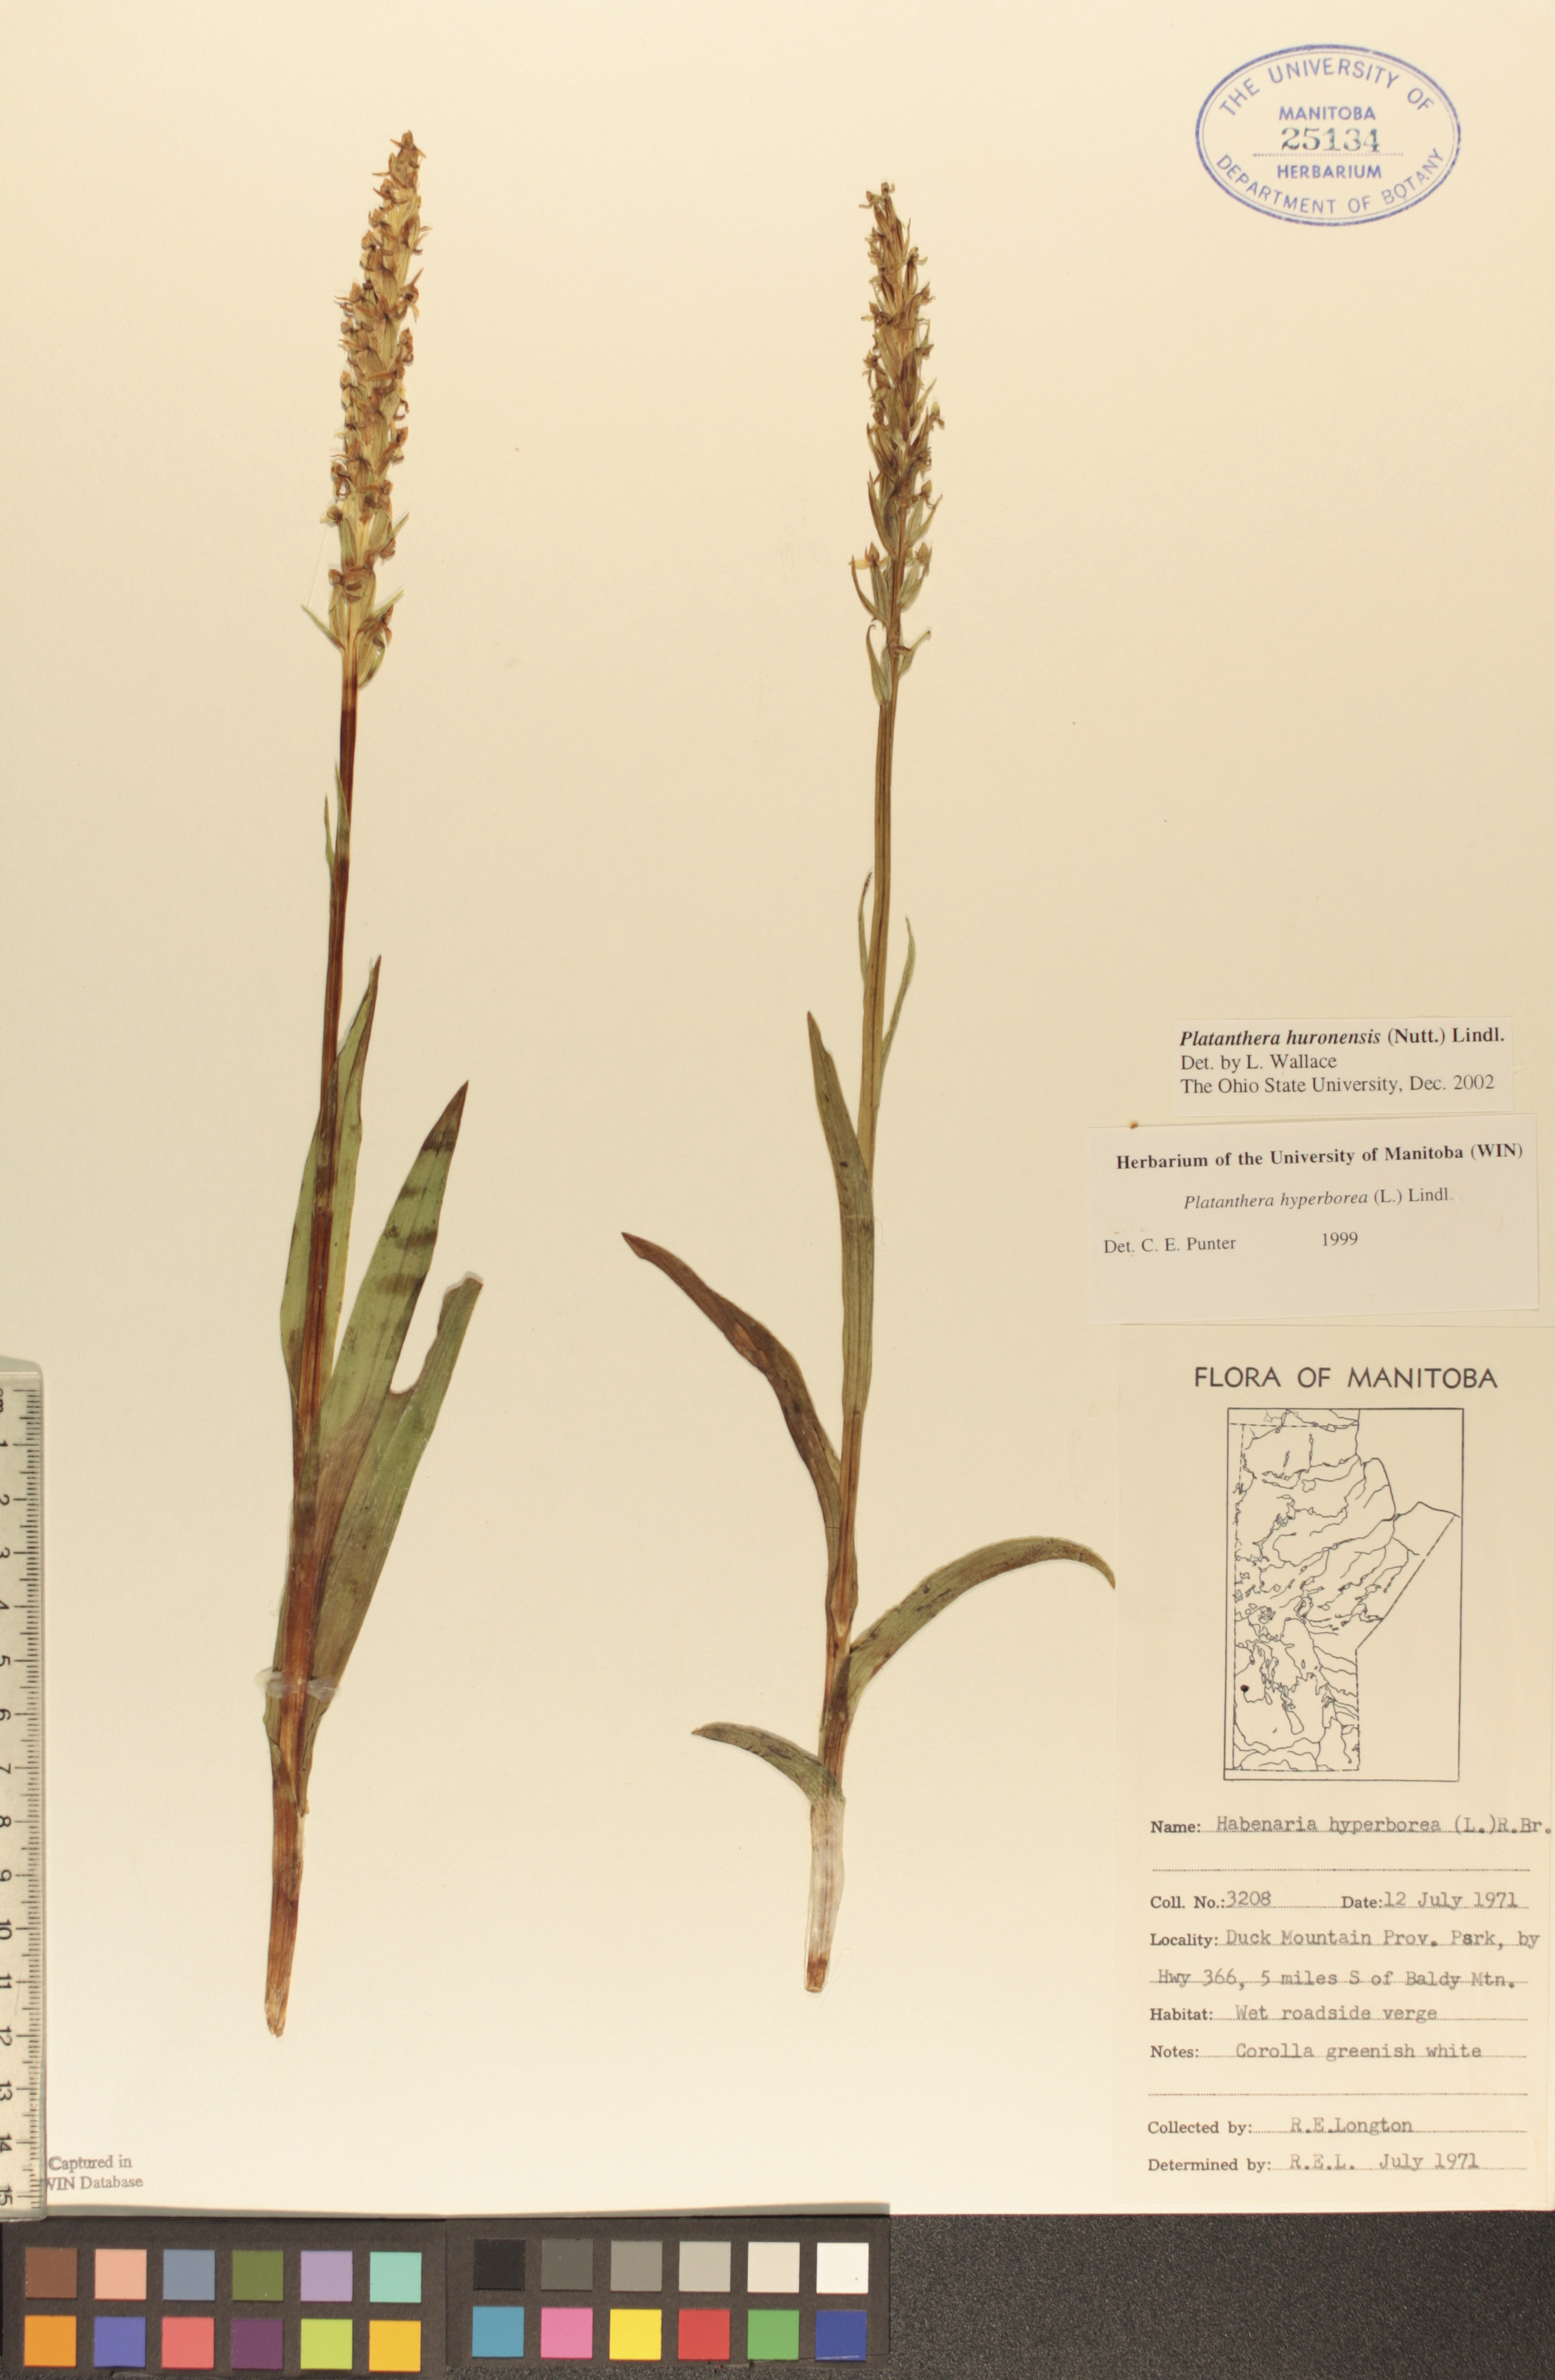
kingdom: Plantae
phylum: Tracheophyta
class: Liliopsida
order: Asparagales
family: Orchidaceae
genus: Platanthera
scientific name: Platanthera huronensis
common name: Fragrant green orchid
